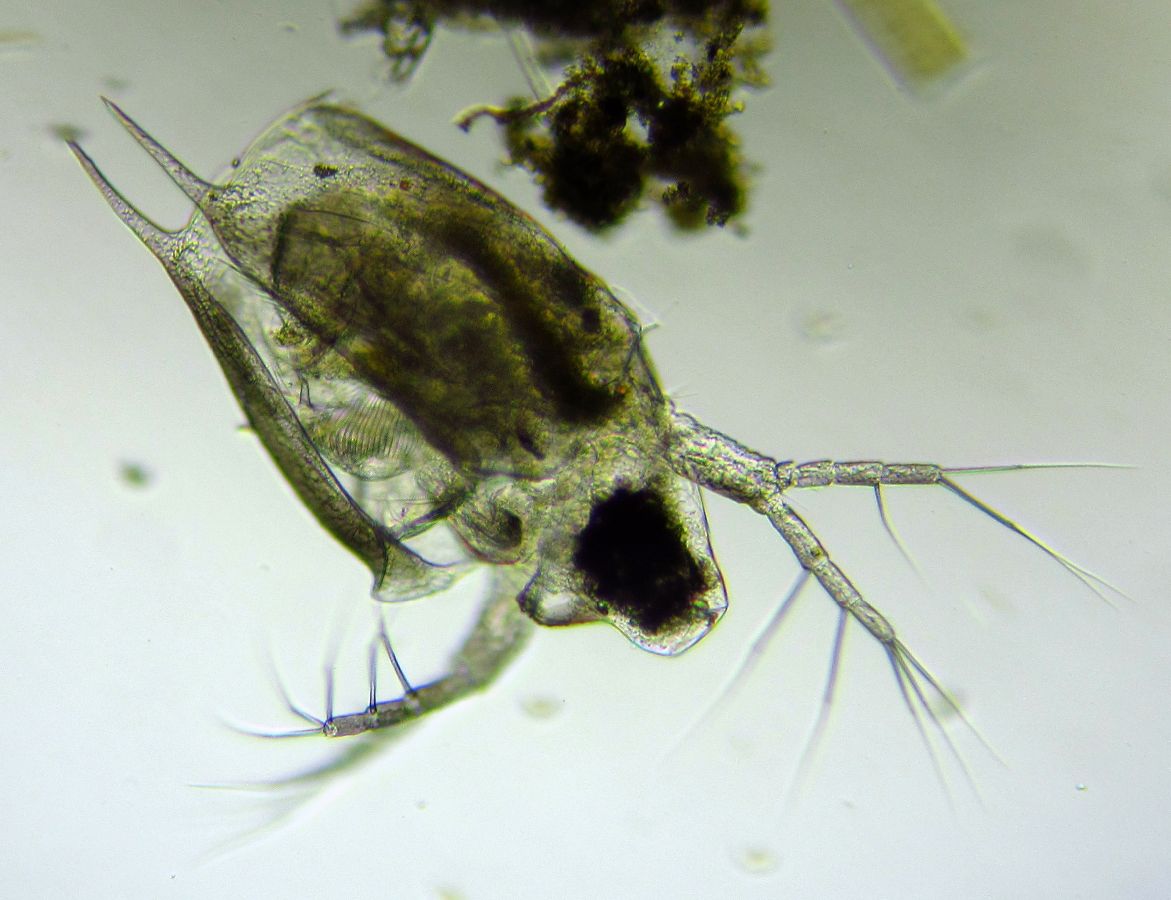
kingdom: Animalia
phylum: Arthropoda
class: Branchiopoda
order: Diplostraca
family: Daphniidae
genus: Scapholeberis
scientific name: Scapholeberis mucronata
